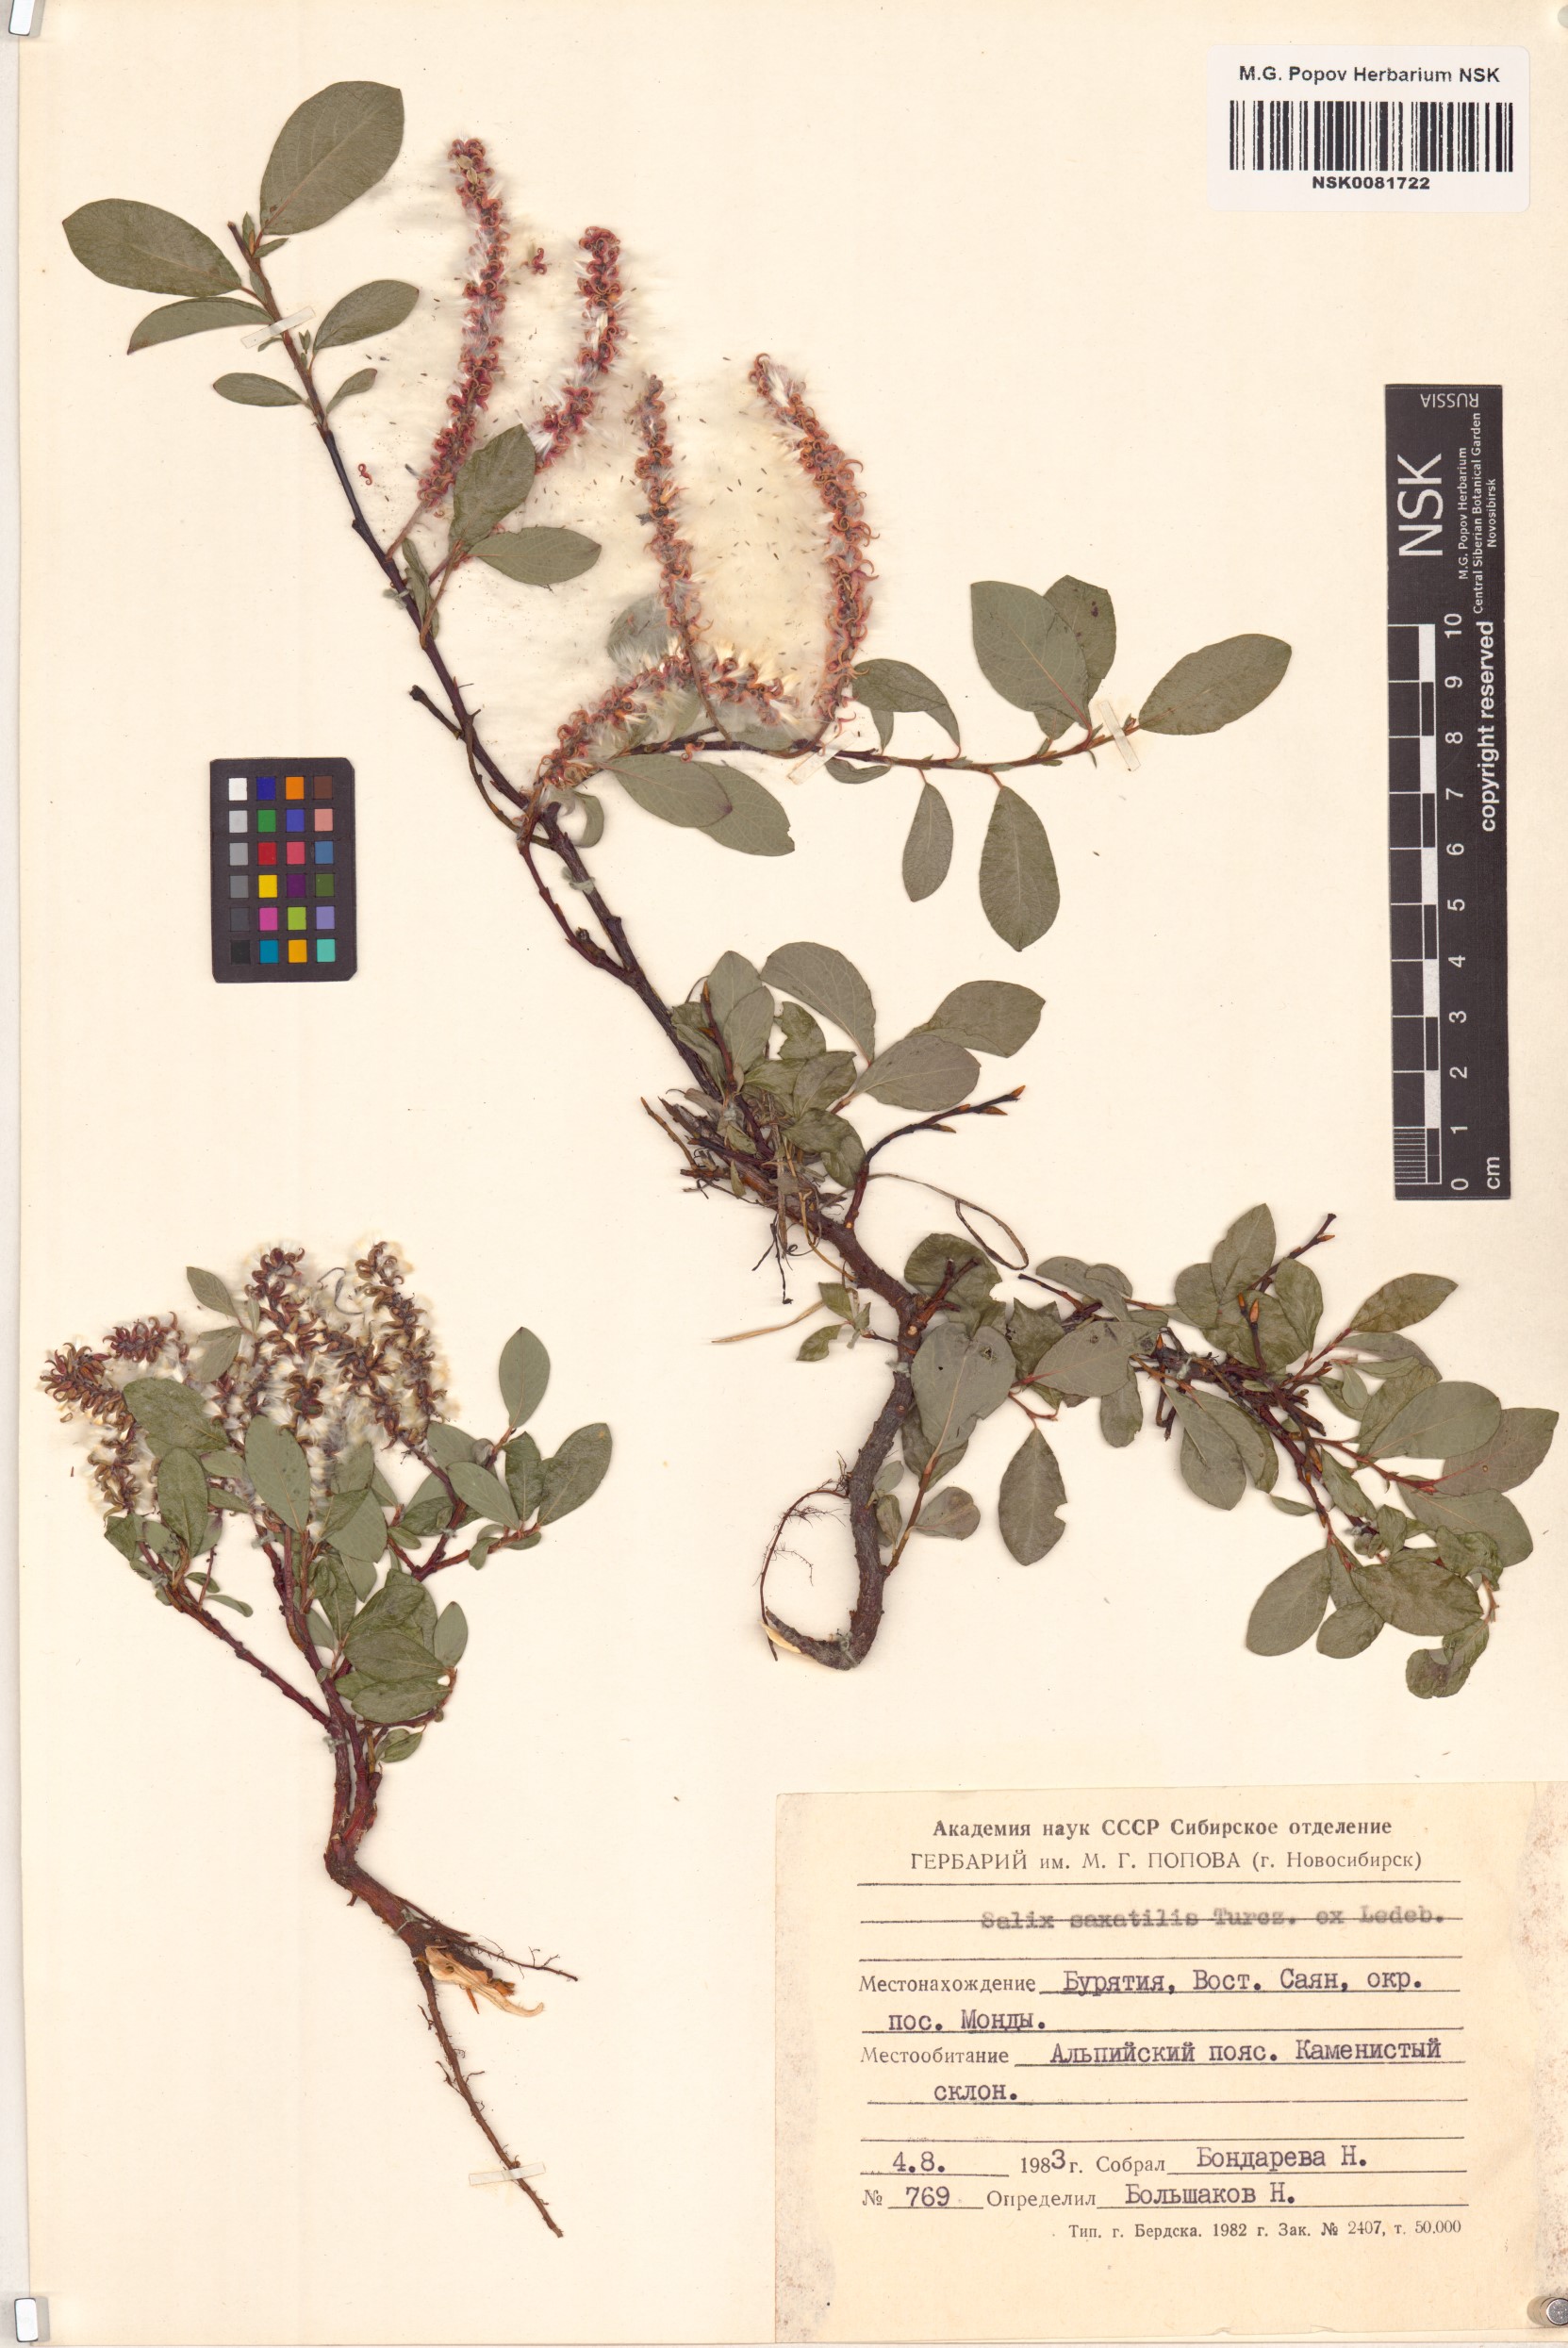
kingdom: Plantae
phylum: Tracheophyta
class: Magnoliopsida
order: Malpighiales
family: Salicaceae
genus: Salix
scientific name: Salix saxatilis
